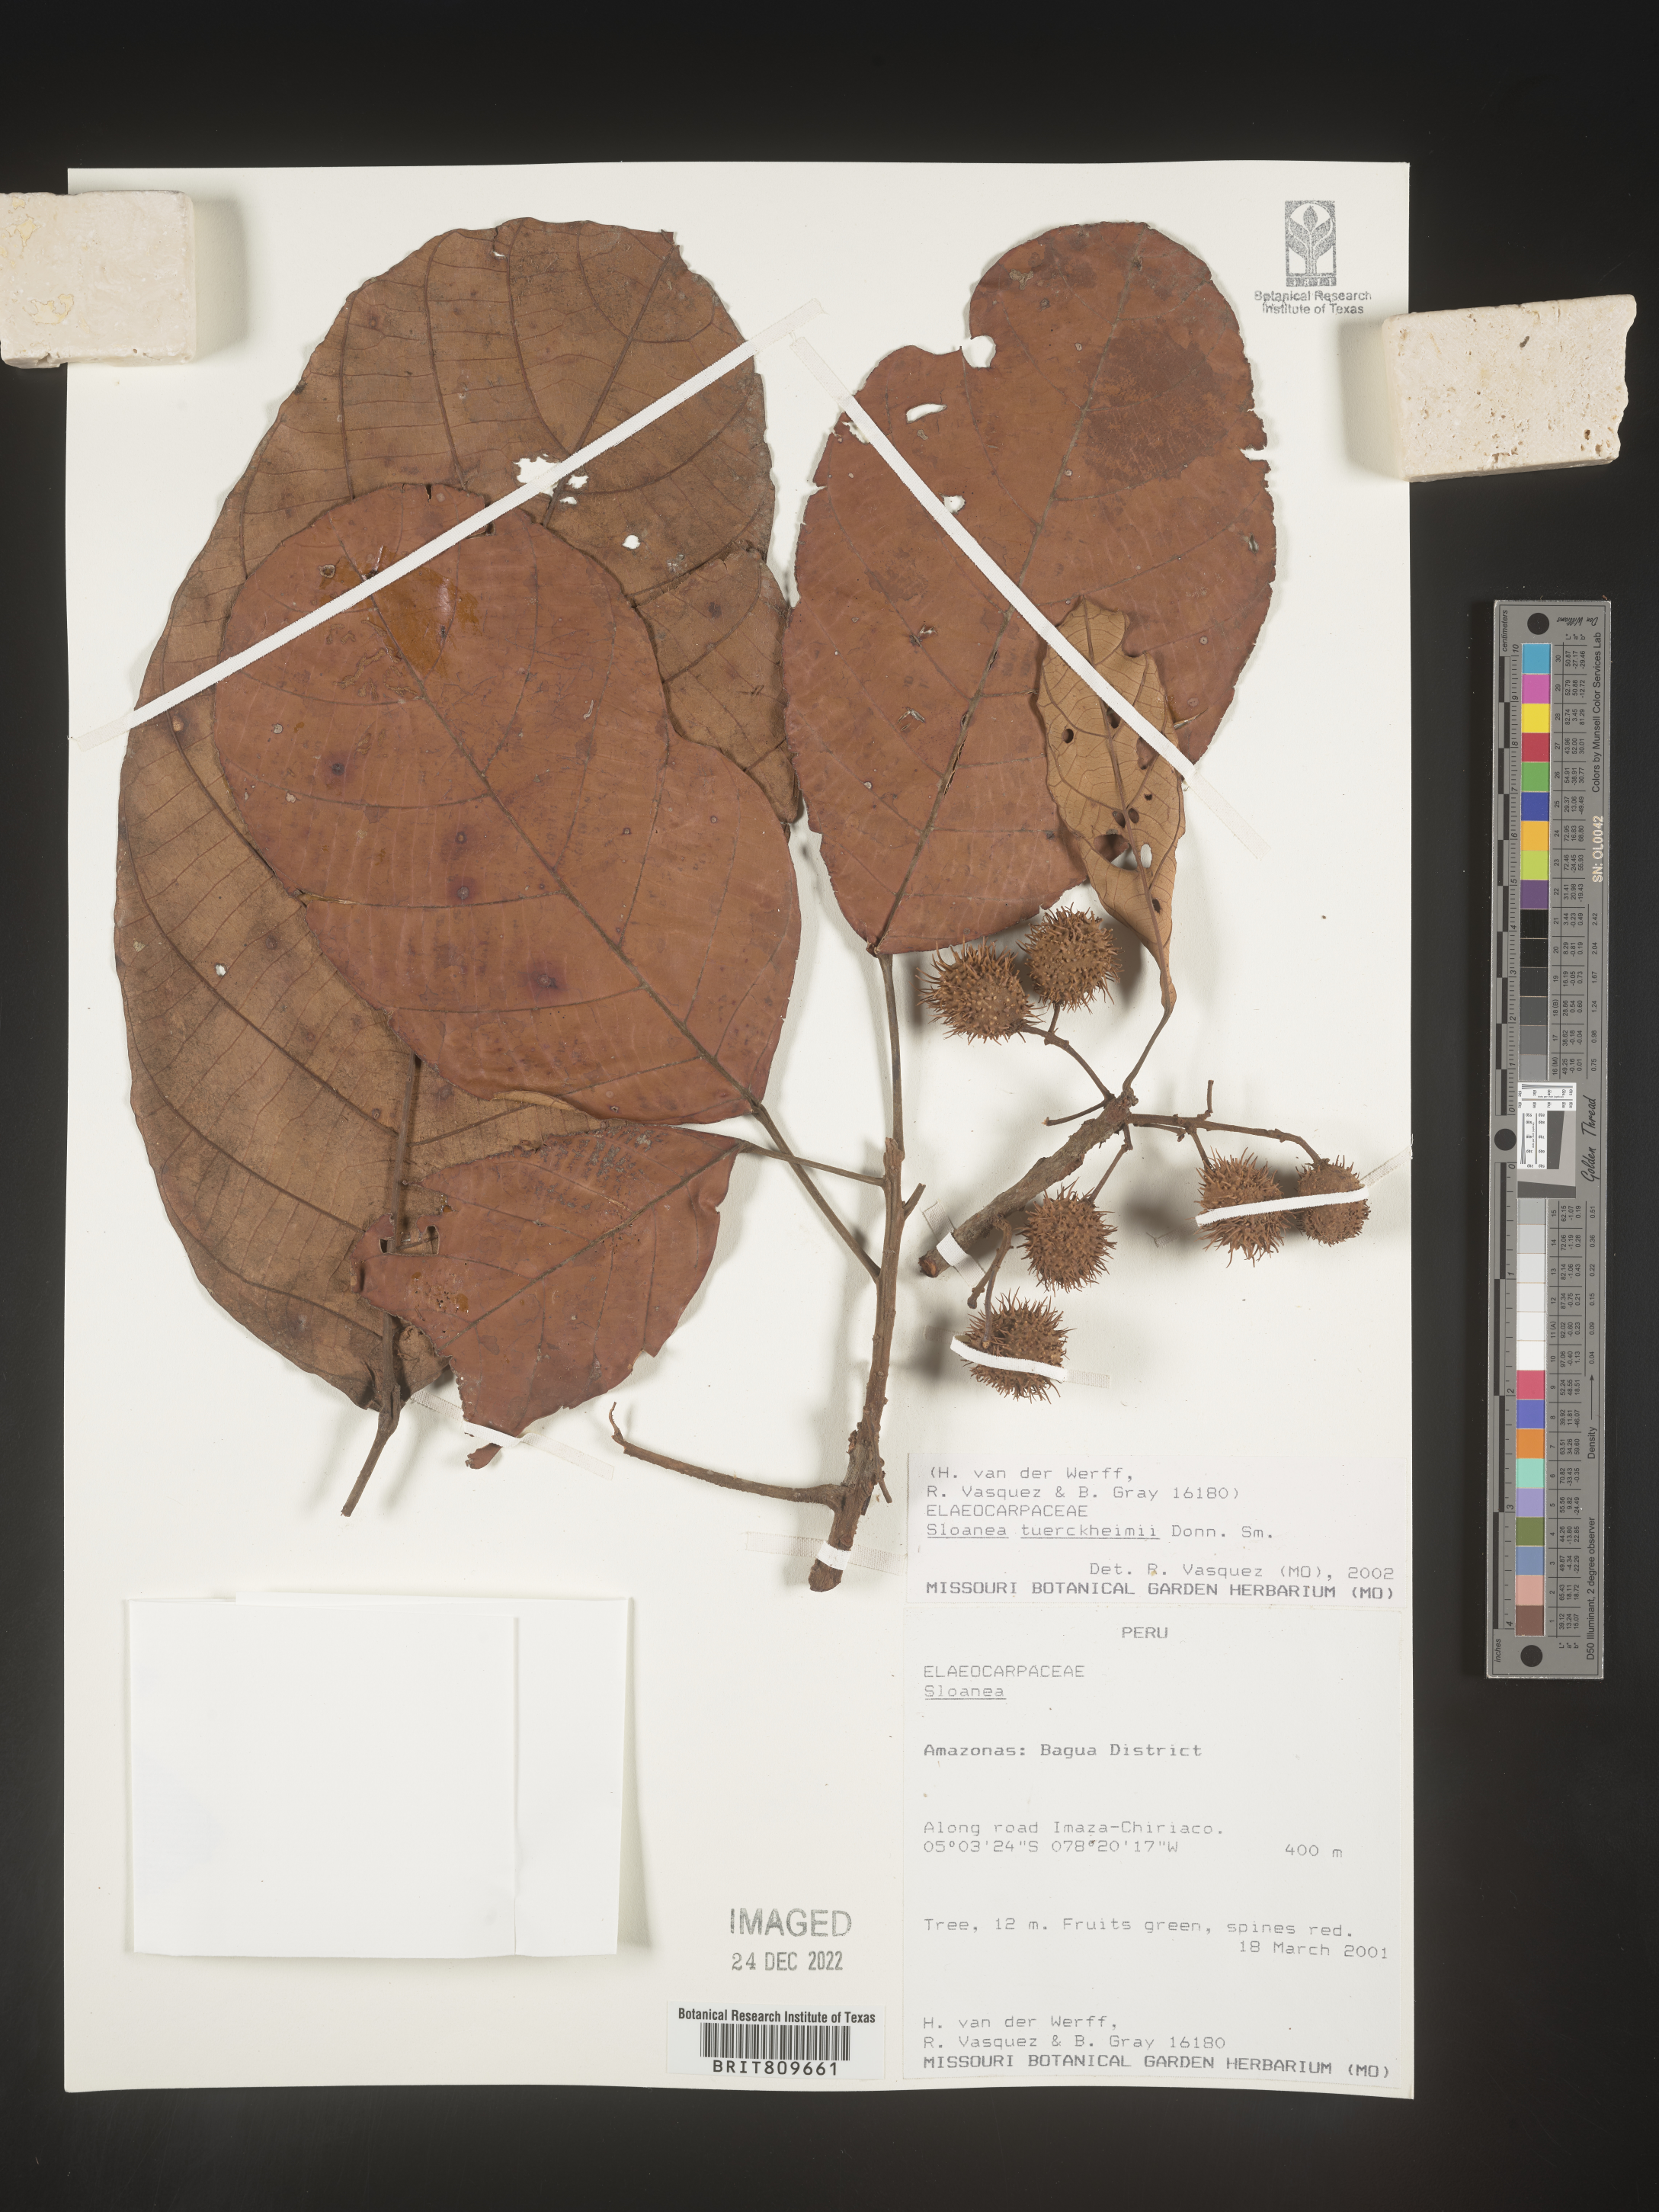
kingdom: Plantae
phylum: Tracheophyta
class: Magnoliopsida
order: Oxalidales
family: Elaeocarpaceae
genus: Sloanea
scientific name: Sloanea
